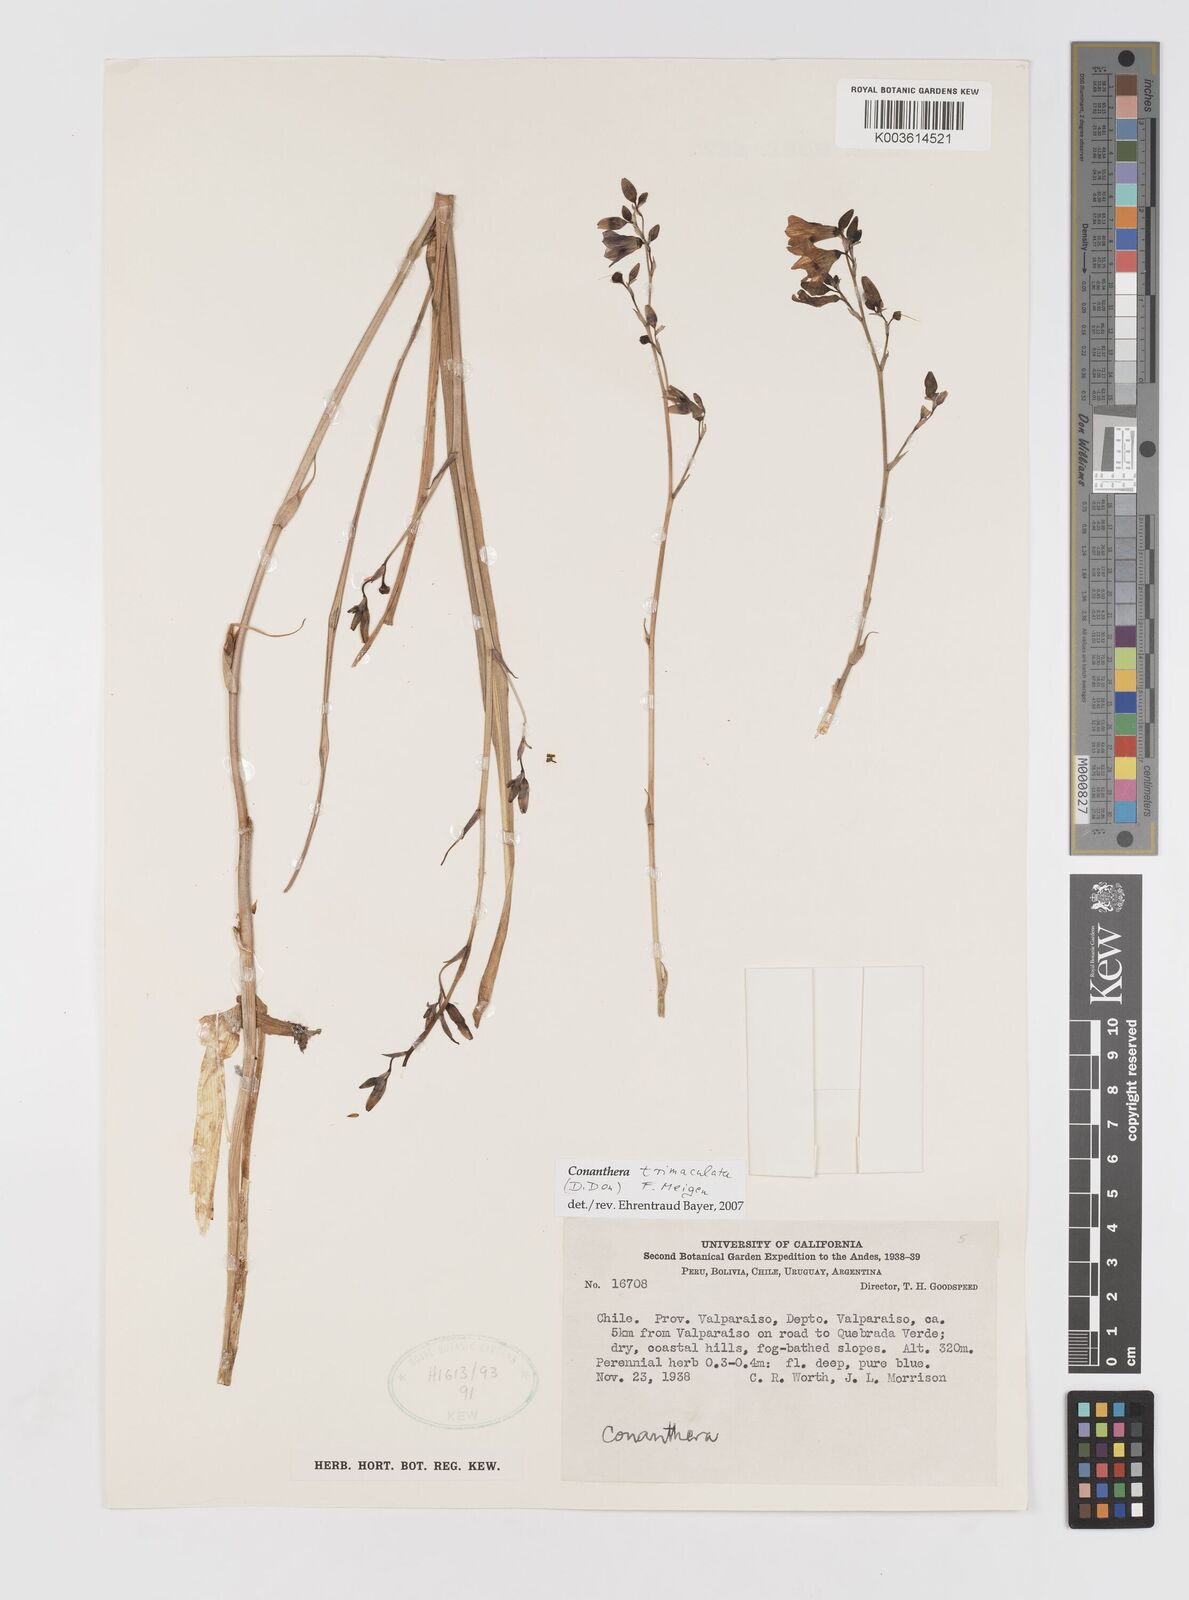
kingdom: Plantae
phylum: Tracheophyta
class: Liliopsida
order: Asparagales
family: Tecophilaeaceae
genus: Conanthera
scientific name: Conanthera trimaculata
